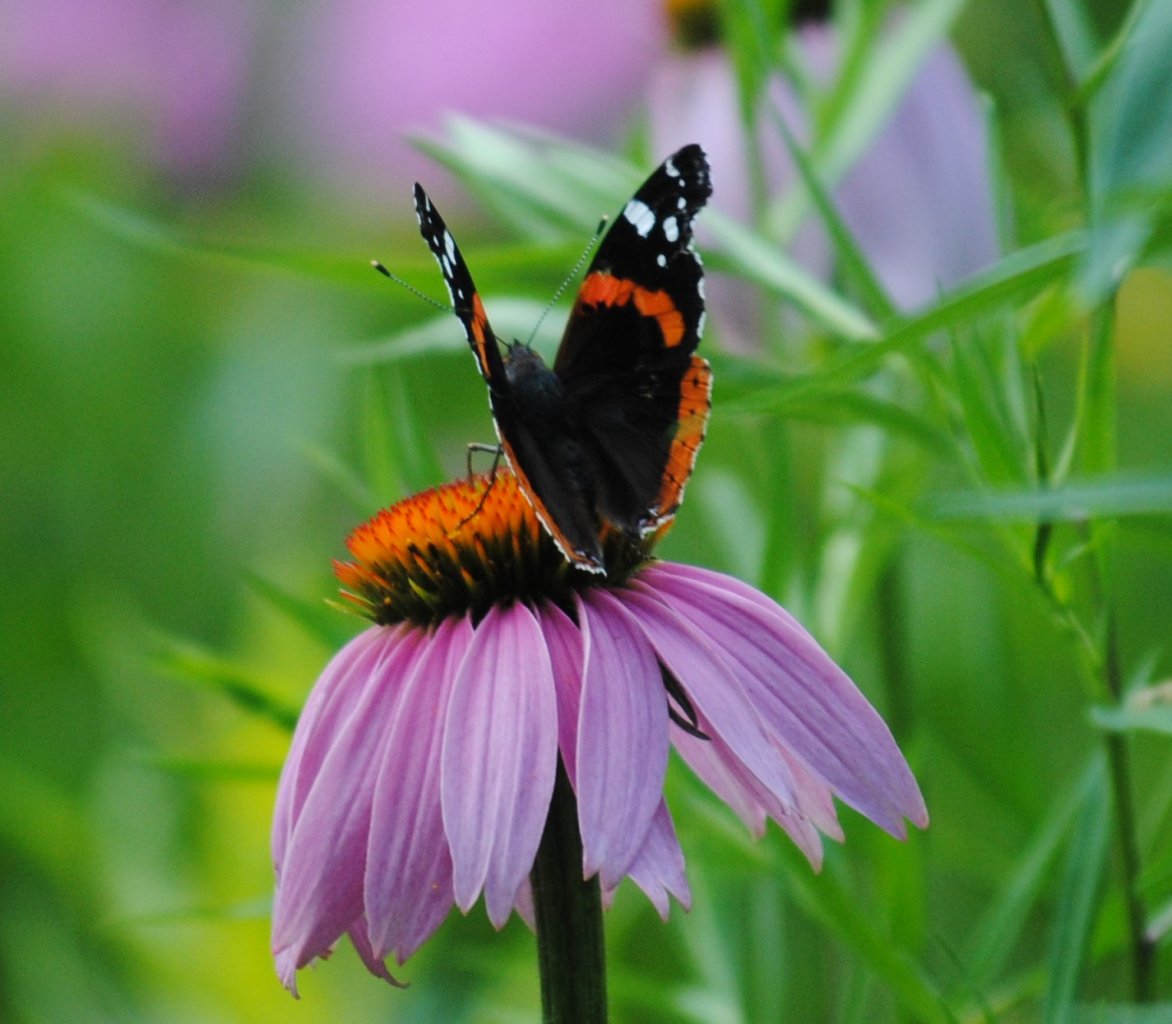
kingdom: Animalia
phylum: Arthropoda
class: Insecta
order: Lepidoptera
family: Nymphalidae
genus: Vanessa
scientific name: Vanessa atalanta
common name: Red Admiral
